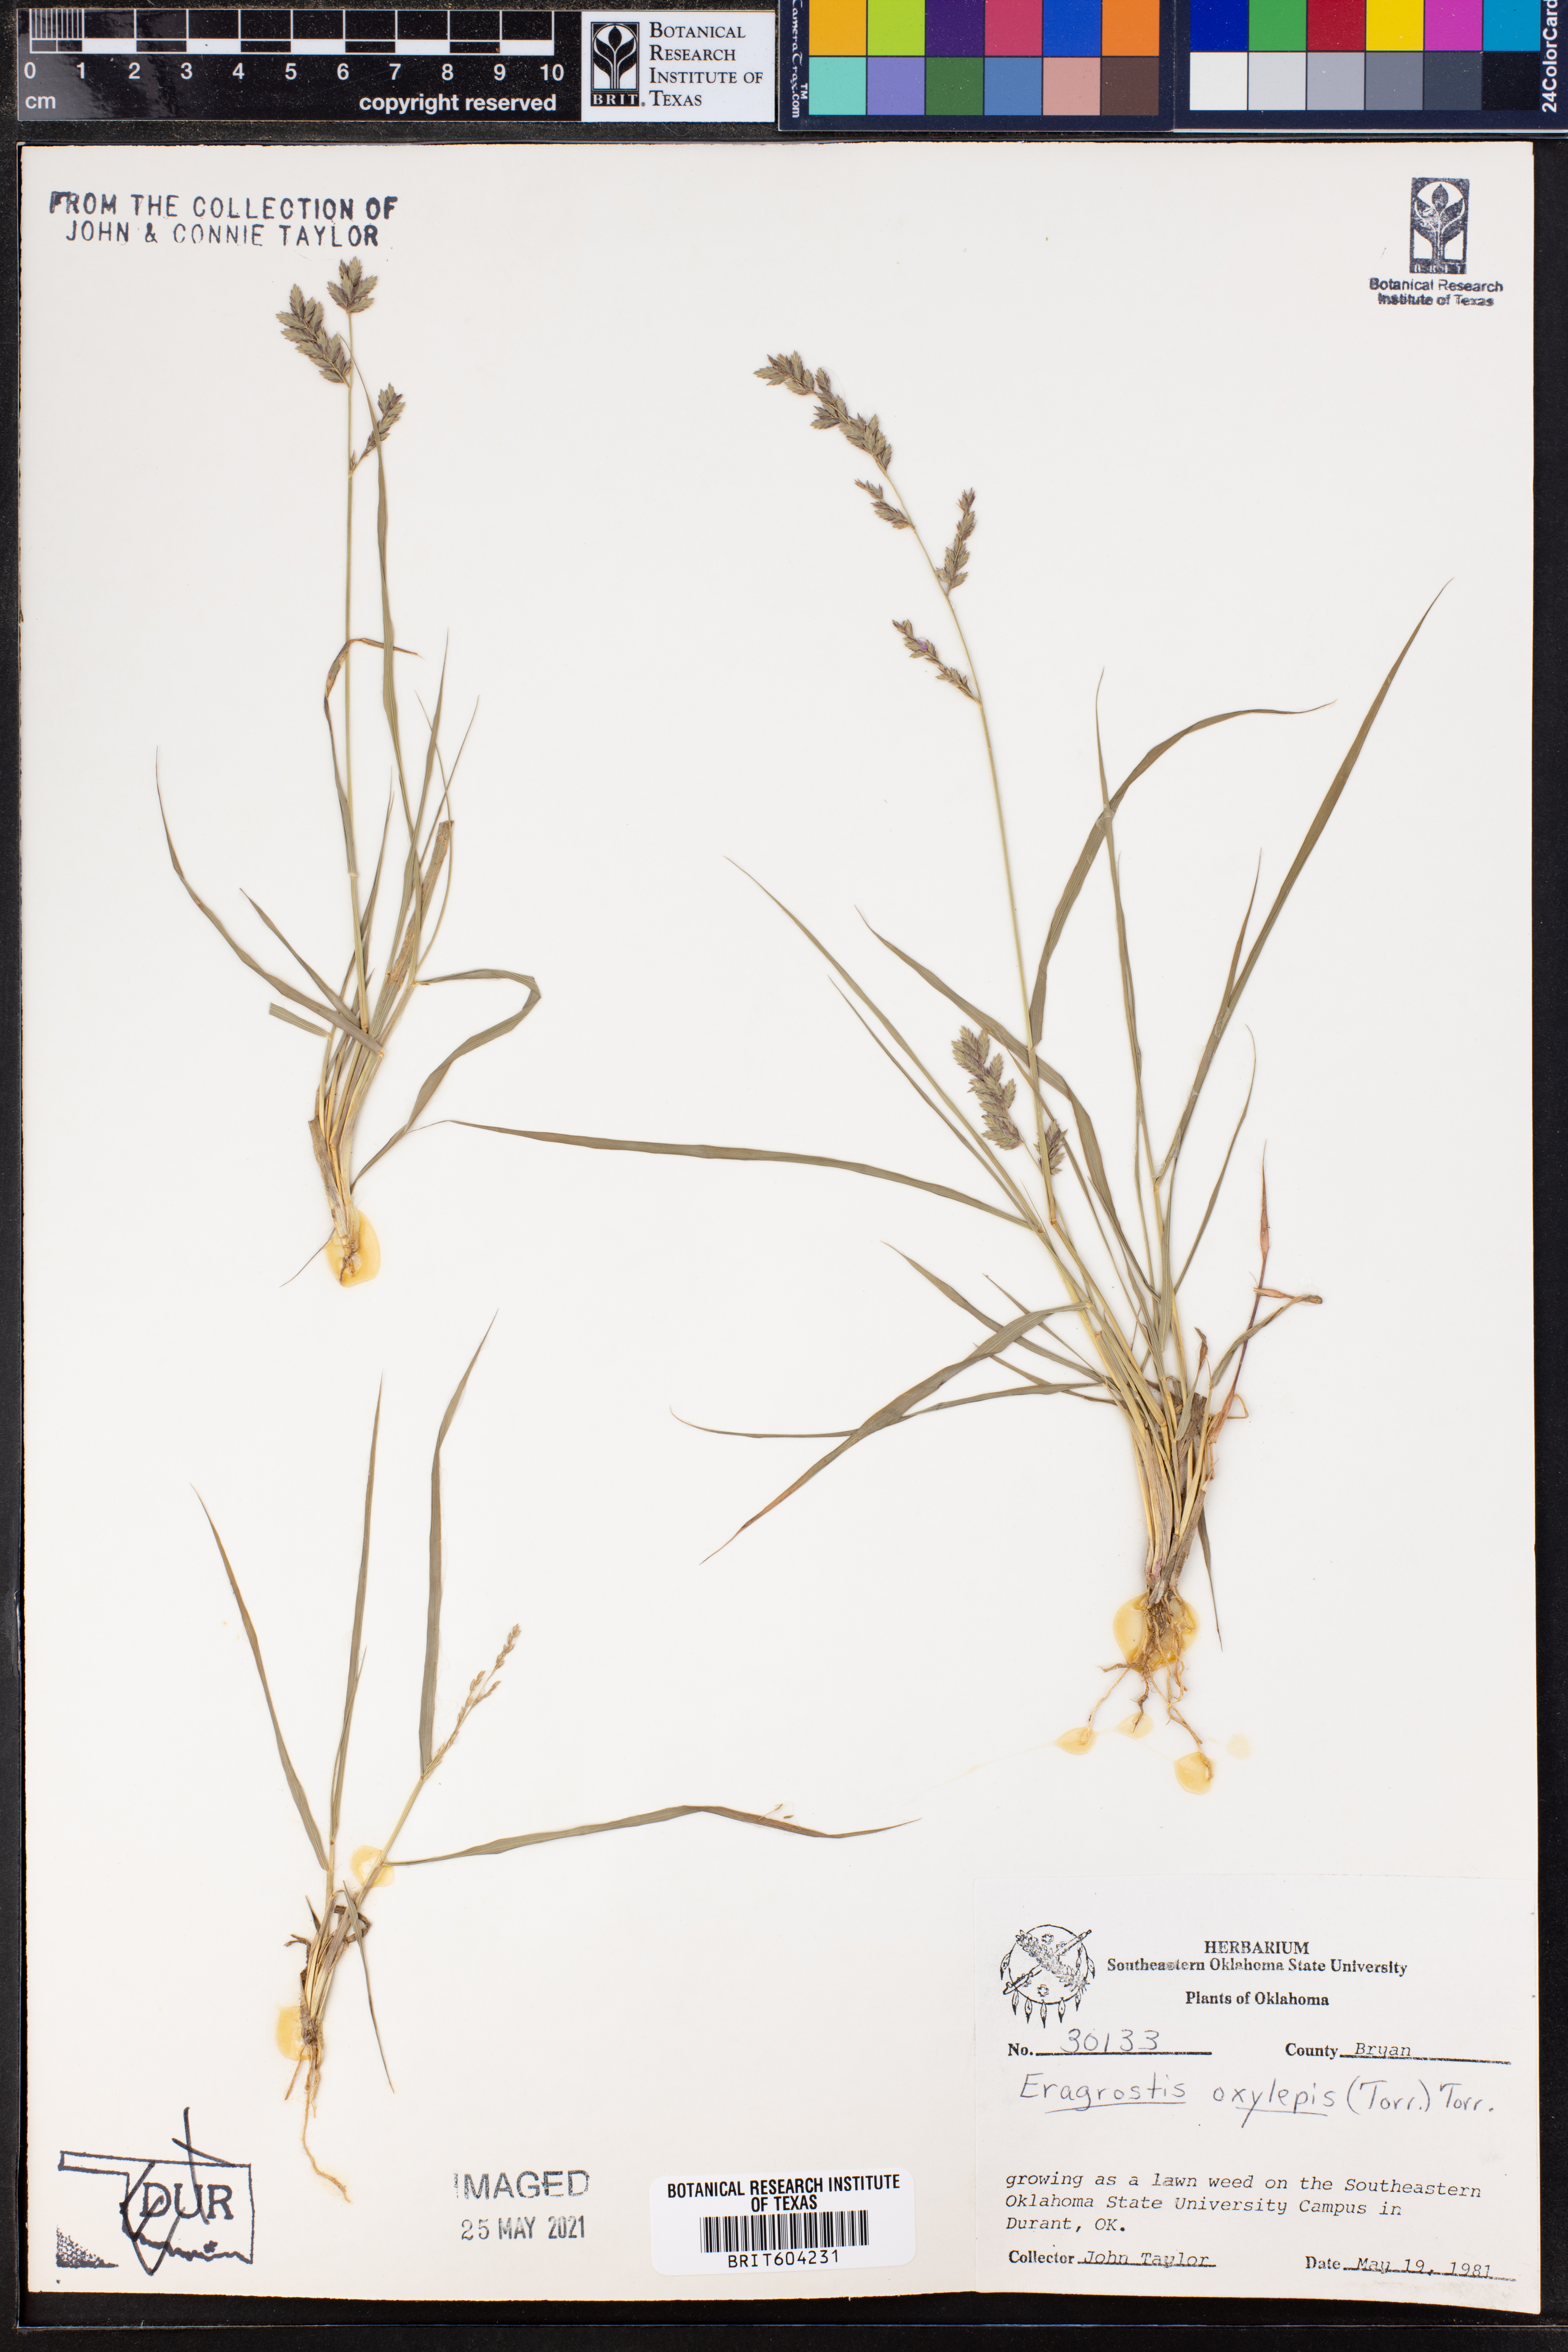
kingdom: Plantae
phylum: Tracheophyta
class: Liliopsida
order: Poales
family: Poaceae
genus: Eragrostis
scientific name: Eragrostis secundiflora
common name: Red love grass
